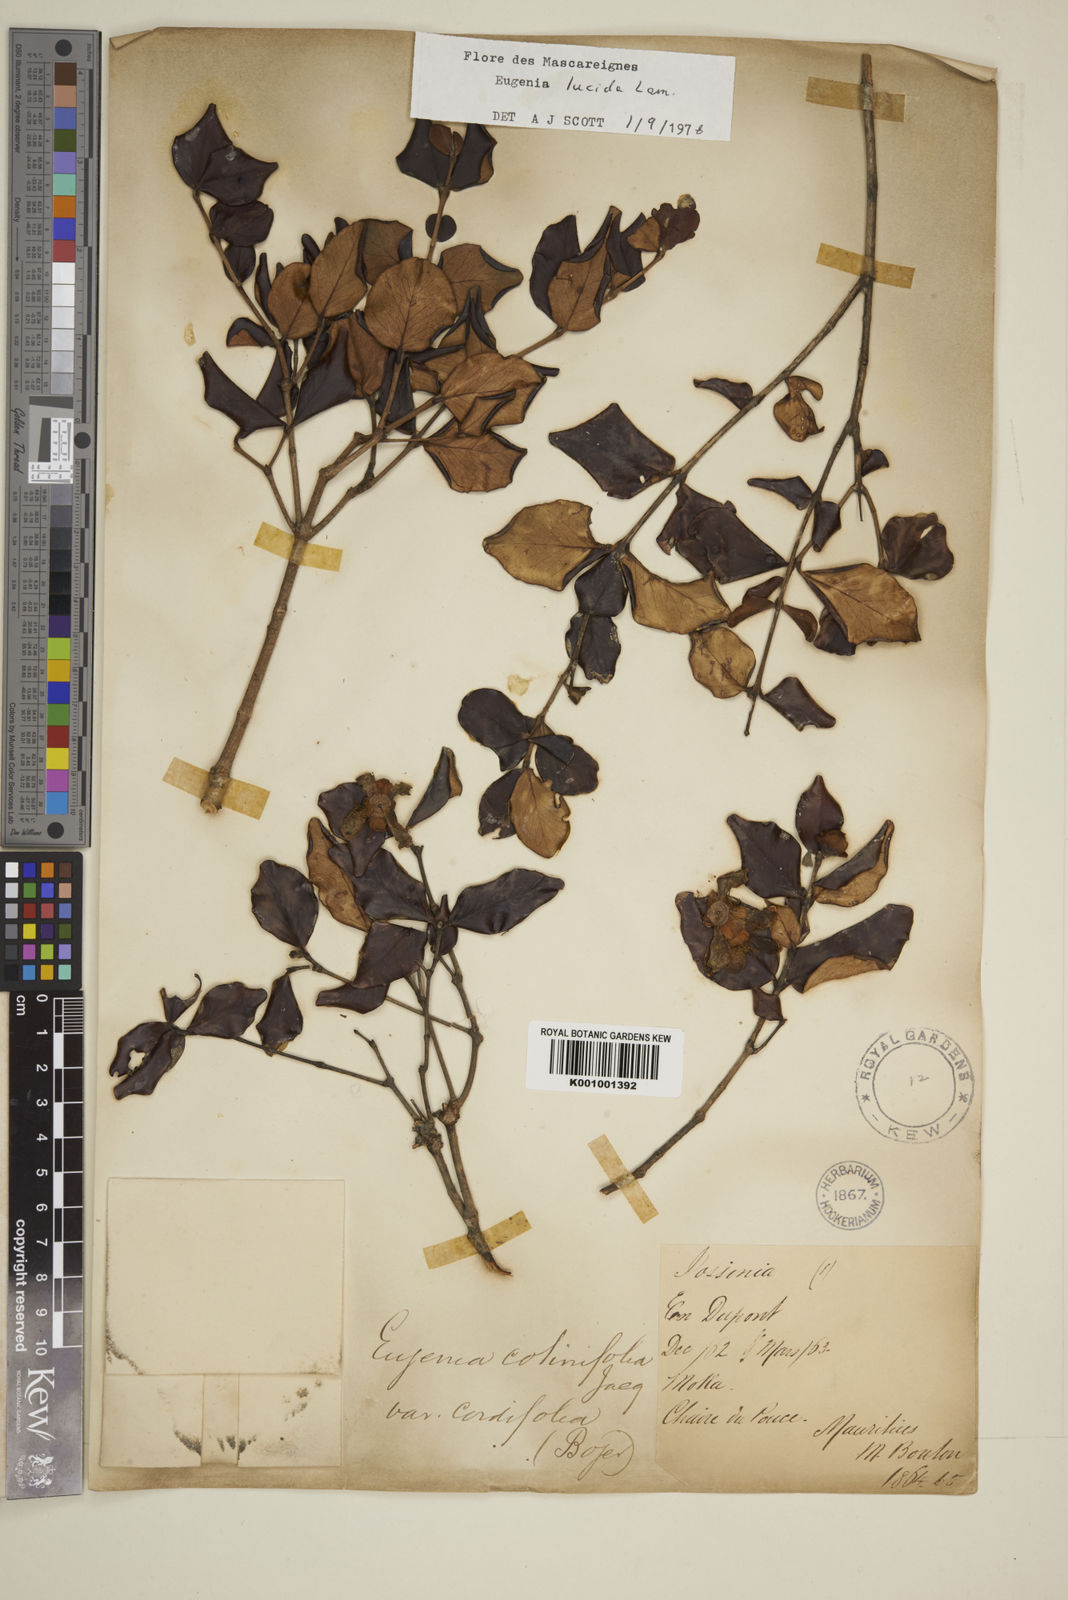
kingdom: Plantae
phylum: Tracheophyta
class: Magnoliopsida
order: Myrtales
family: Myrtaceae
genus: Eugenia
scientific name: Eugenia lucida
